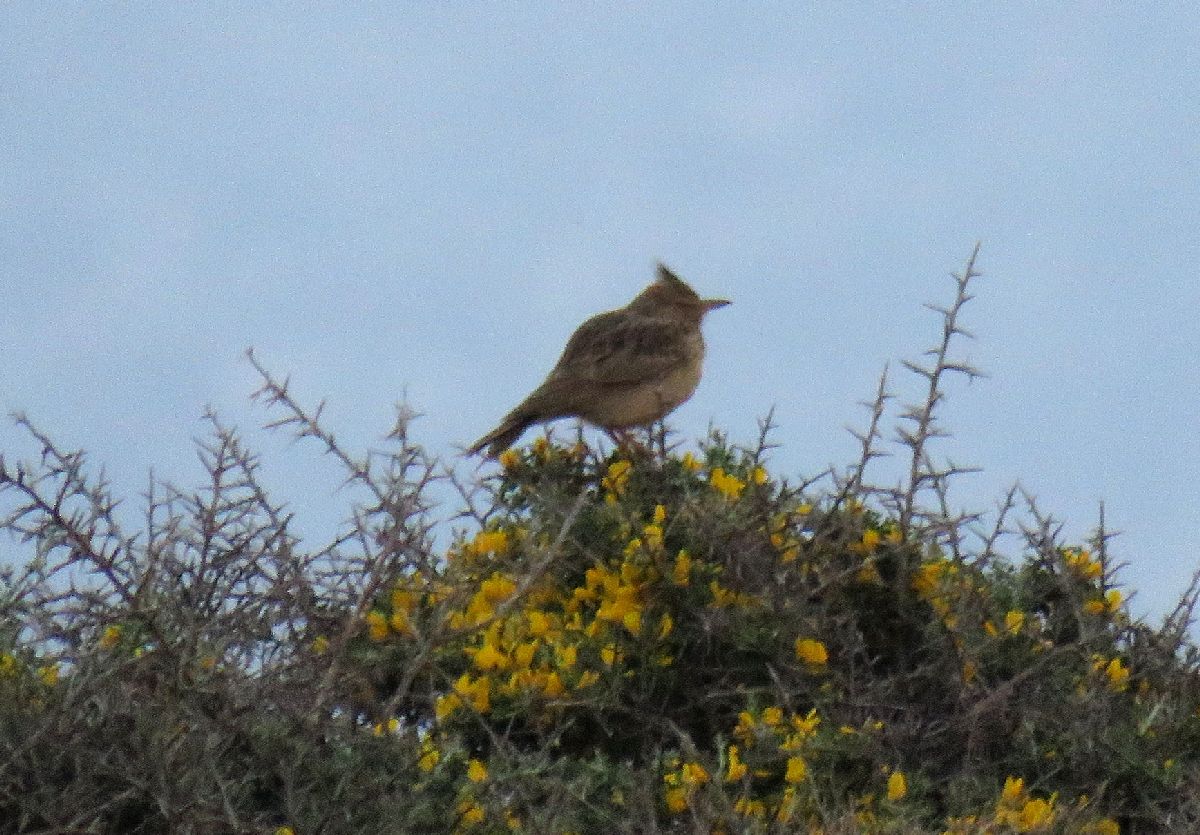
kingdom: Animalia
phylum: Chordata
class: Aves
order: Passeriformes
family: Alaudidae
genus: Galerida
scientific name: Galerida cristata
